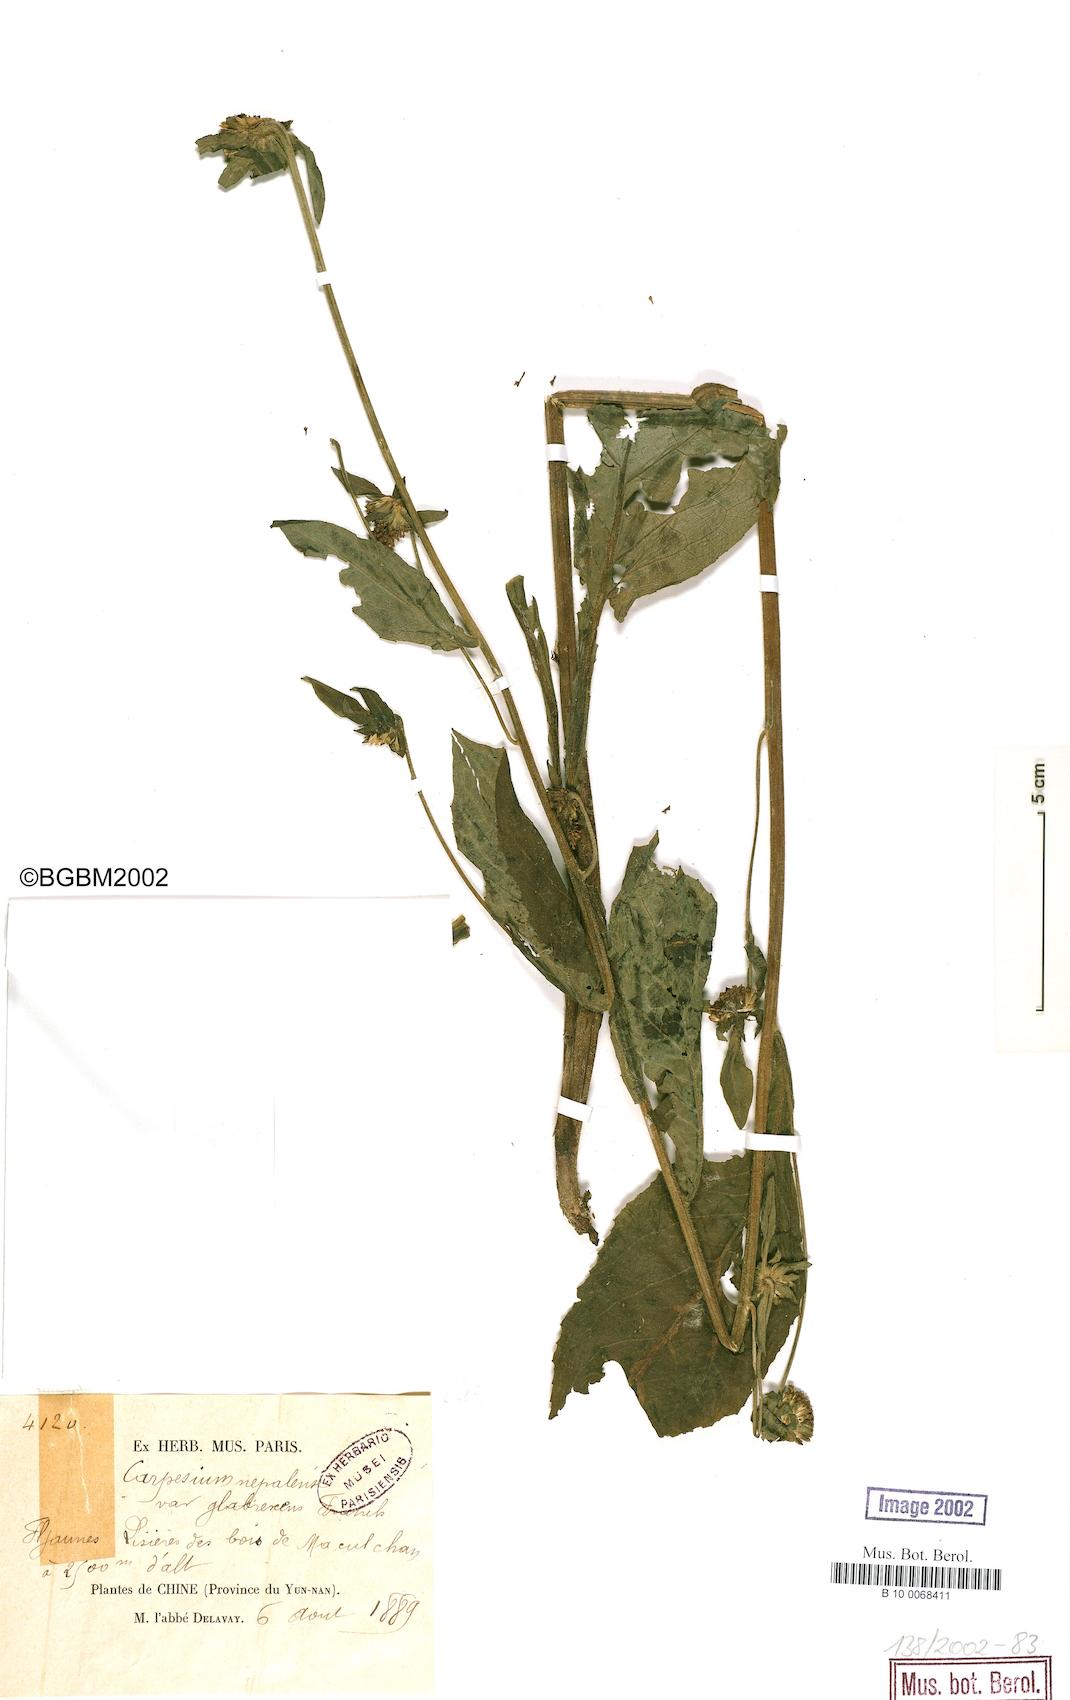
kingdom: Plantae
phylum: Tracheophyta
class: Magnoliopsida
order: Asterales
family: Asteraceae
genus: Carpesium
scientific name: Carpesium nepalense
